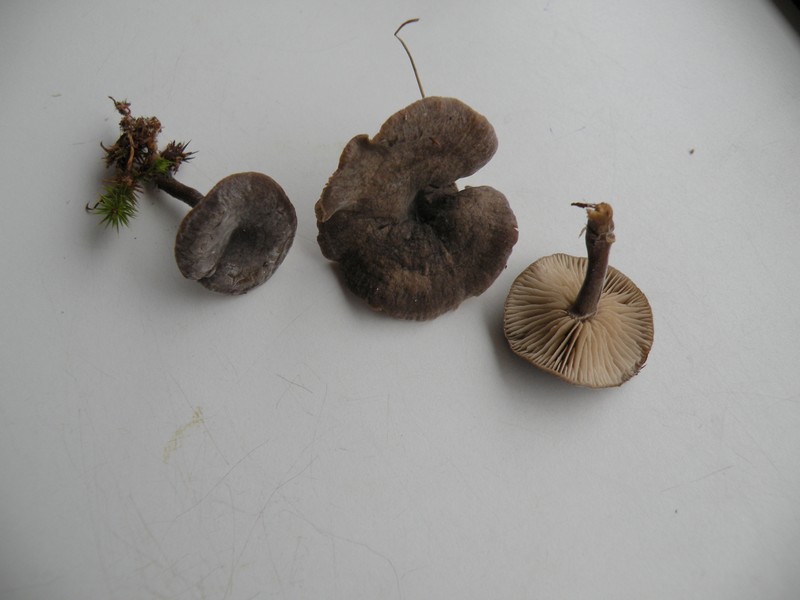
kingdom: Fungi
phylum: Basidiomycota
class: Agaricomycetes
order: Agaricales
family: Entolomataceae
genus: Entoloma
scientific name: Entoloma undatum
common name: bæltet rødblad
